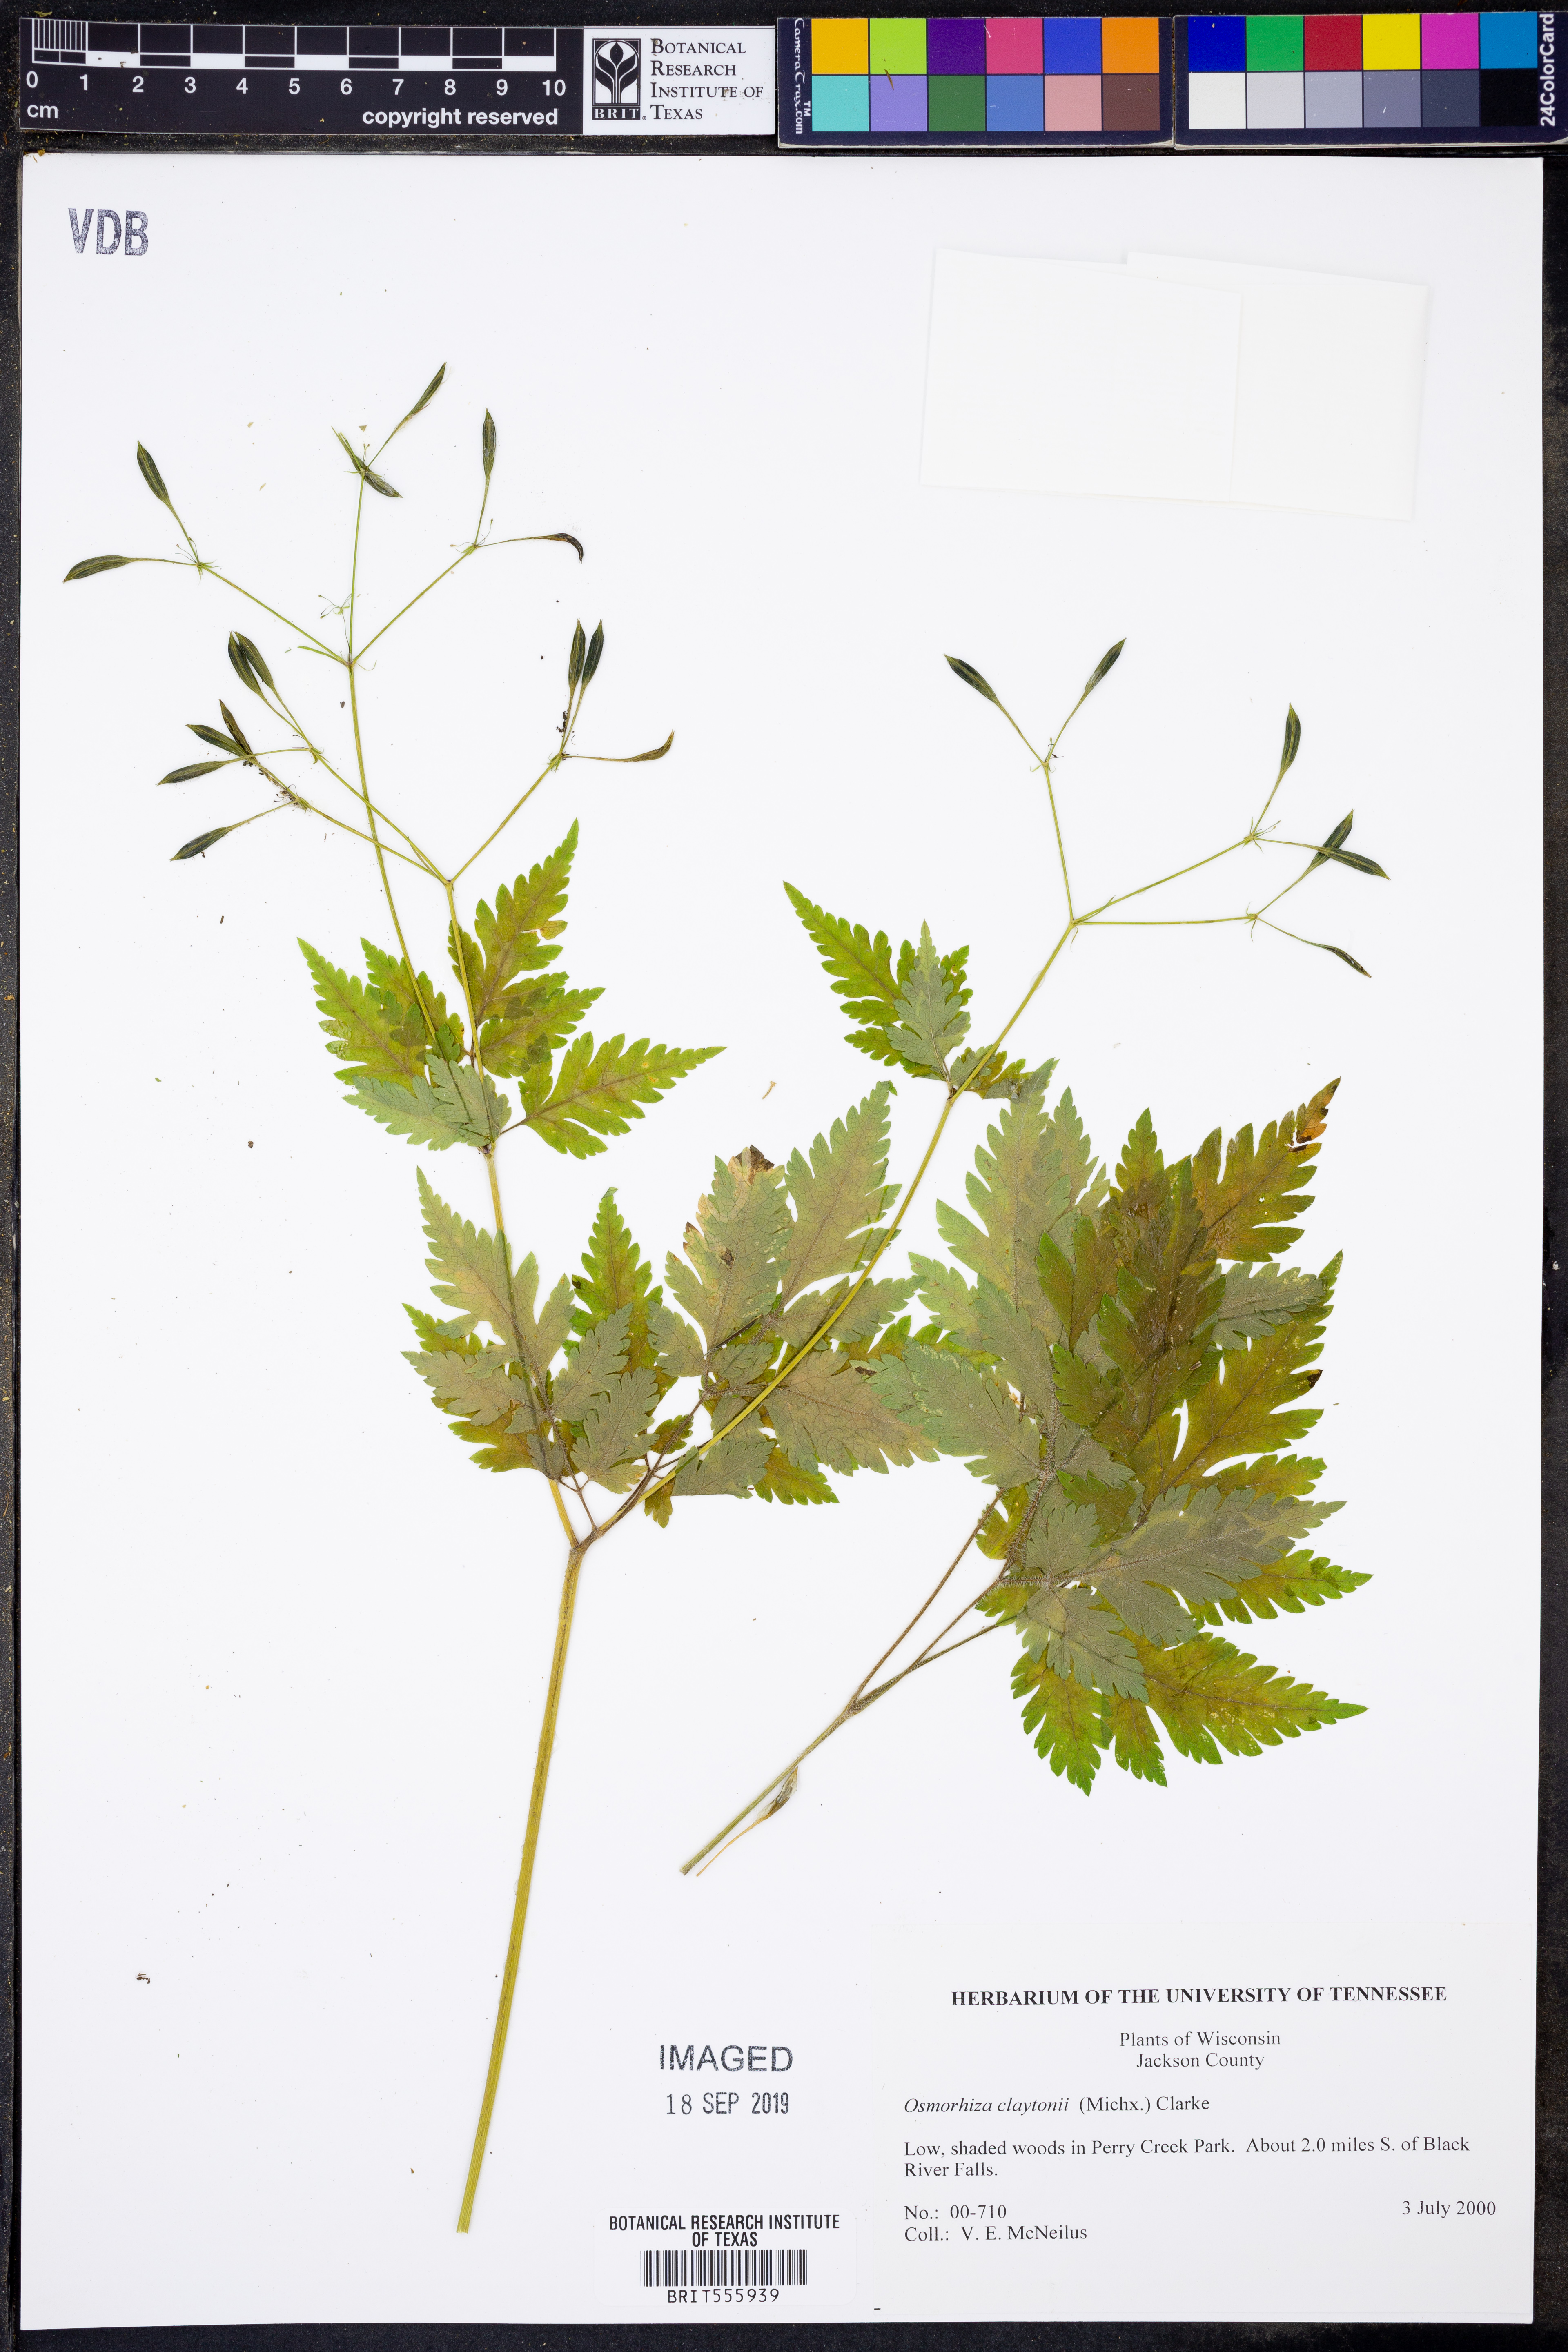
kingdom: Plantae
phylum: Tracheophyta
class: Magnoliopsida
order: Apiales
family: Apiaceae
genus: Osmorhiza
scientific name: Osmorhiza claytonii
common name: Hairy sweet cicely
